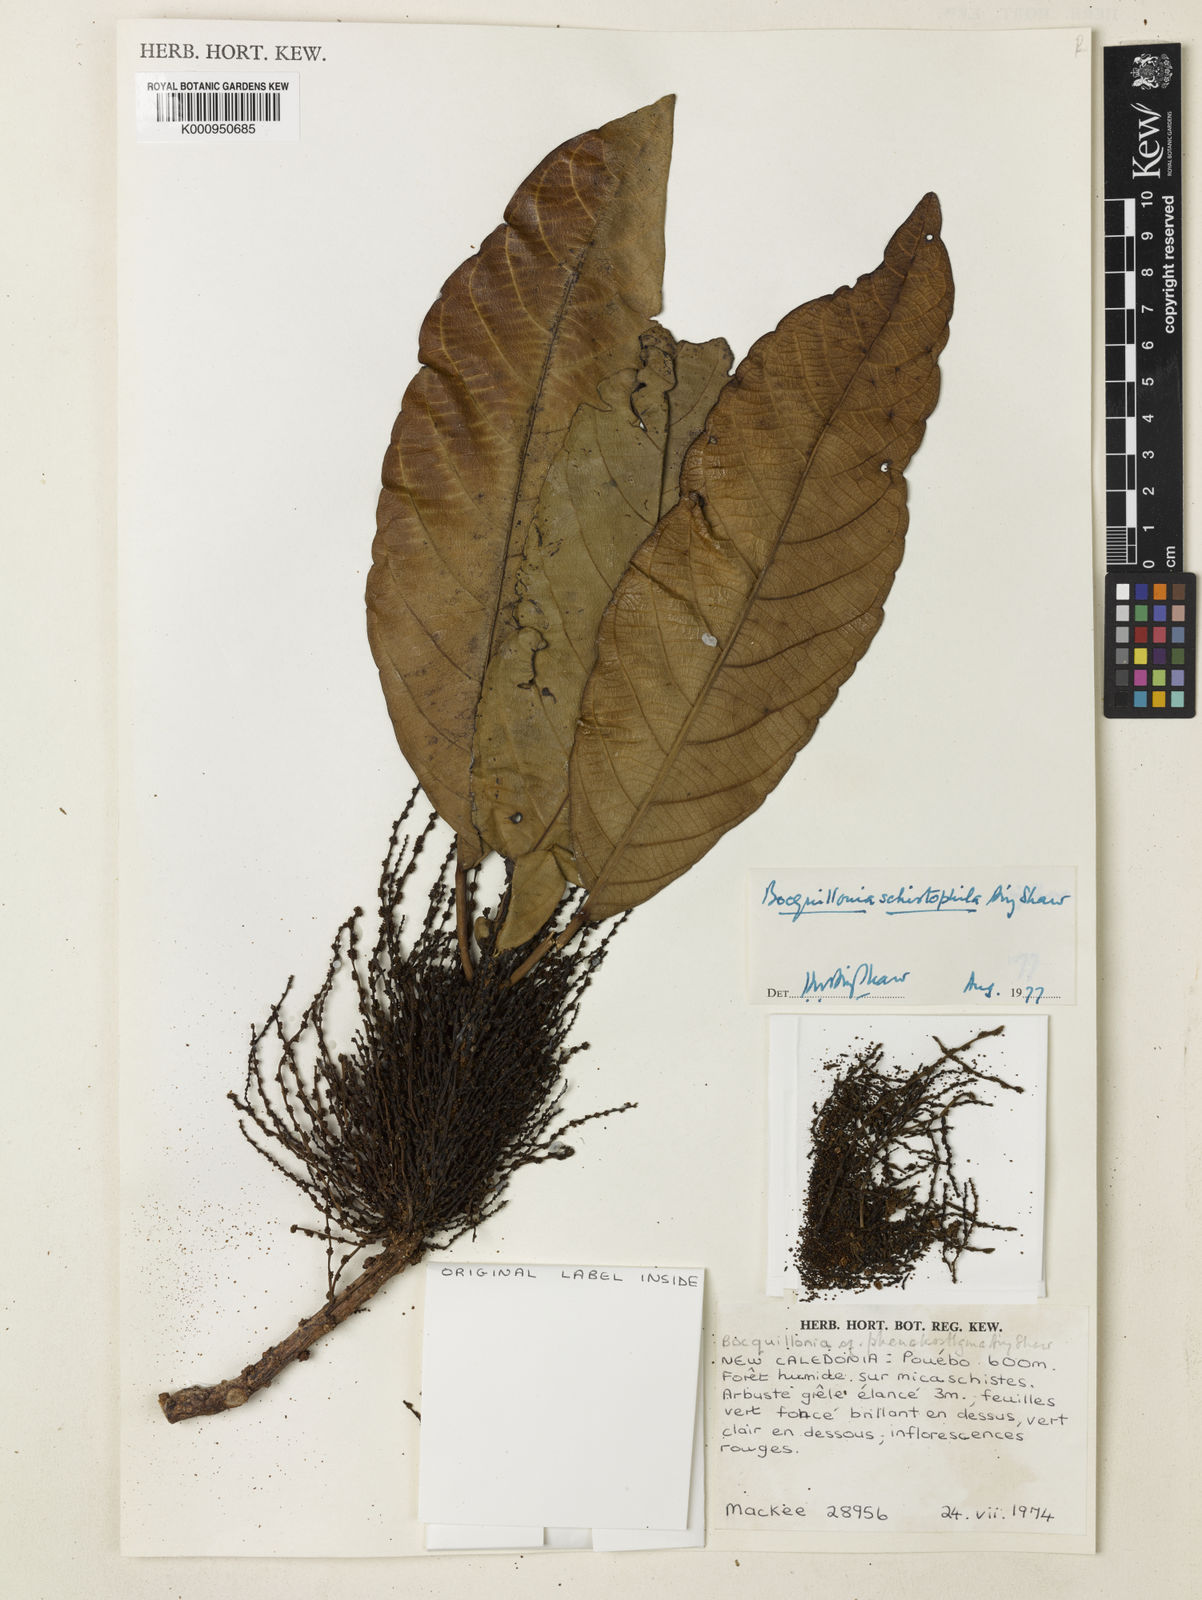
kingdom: Plantae
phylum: Tracheophyta
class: Magnoliopsida
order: Malpighiales
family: Euphorbiaceae
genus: Bocquillonia
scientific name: Bocquillonia nervosa
